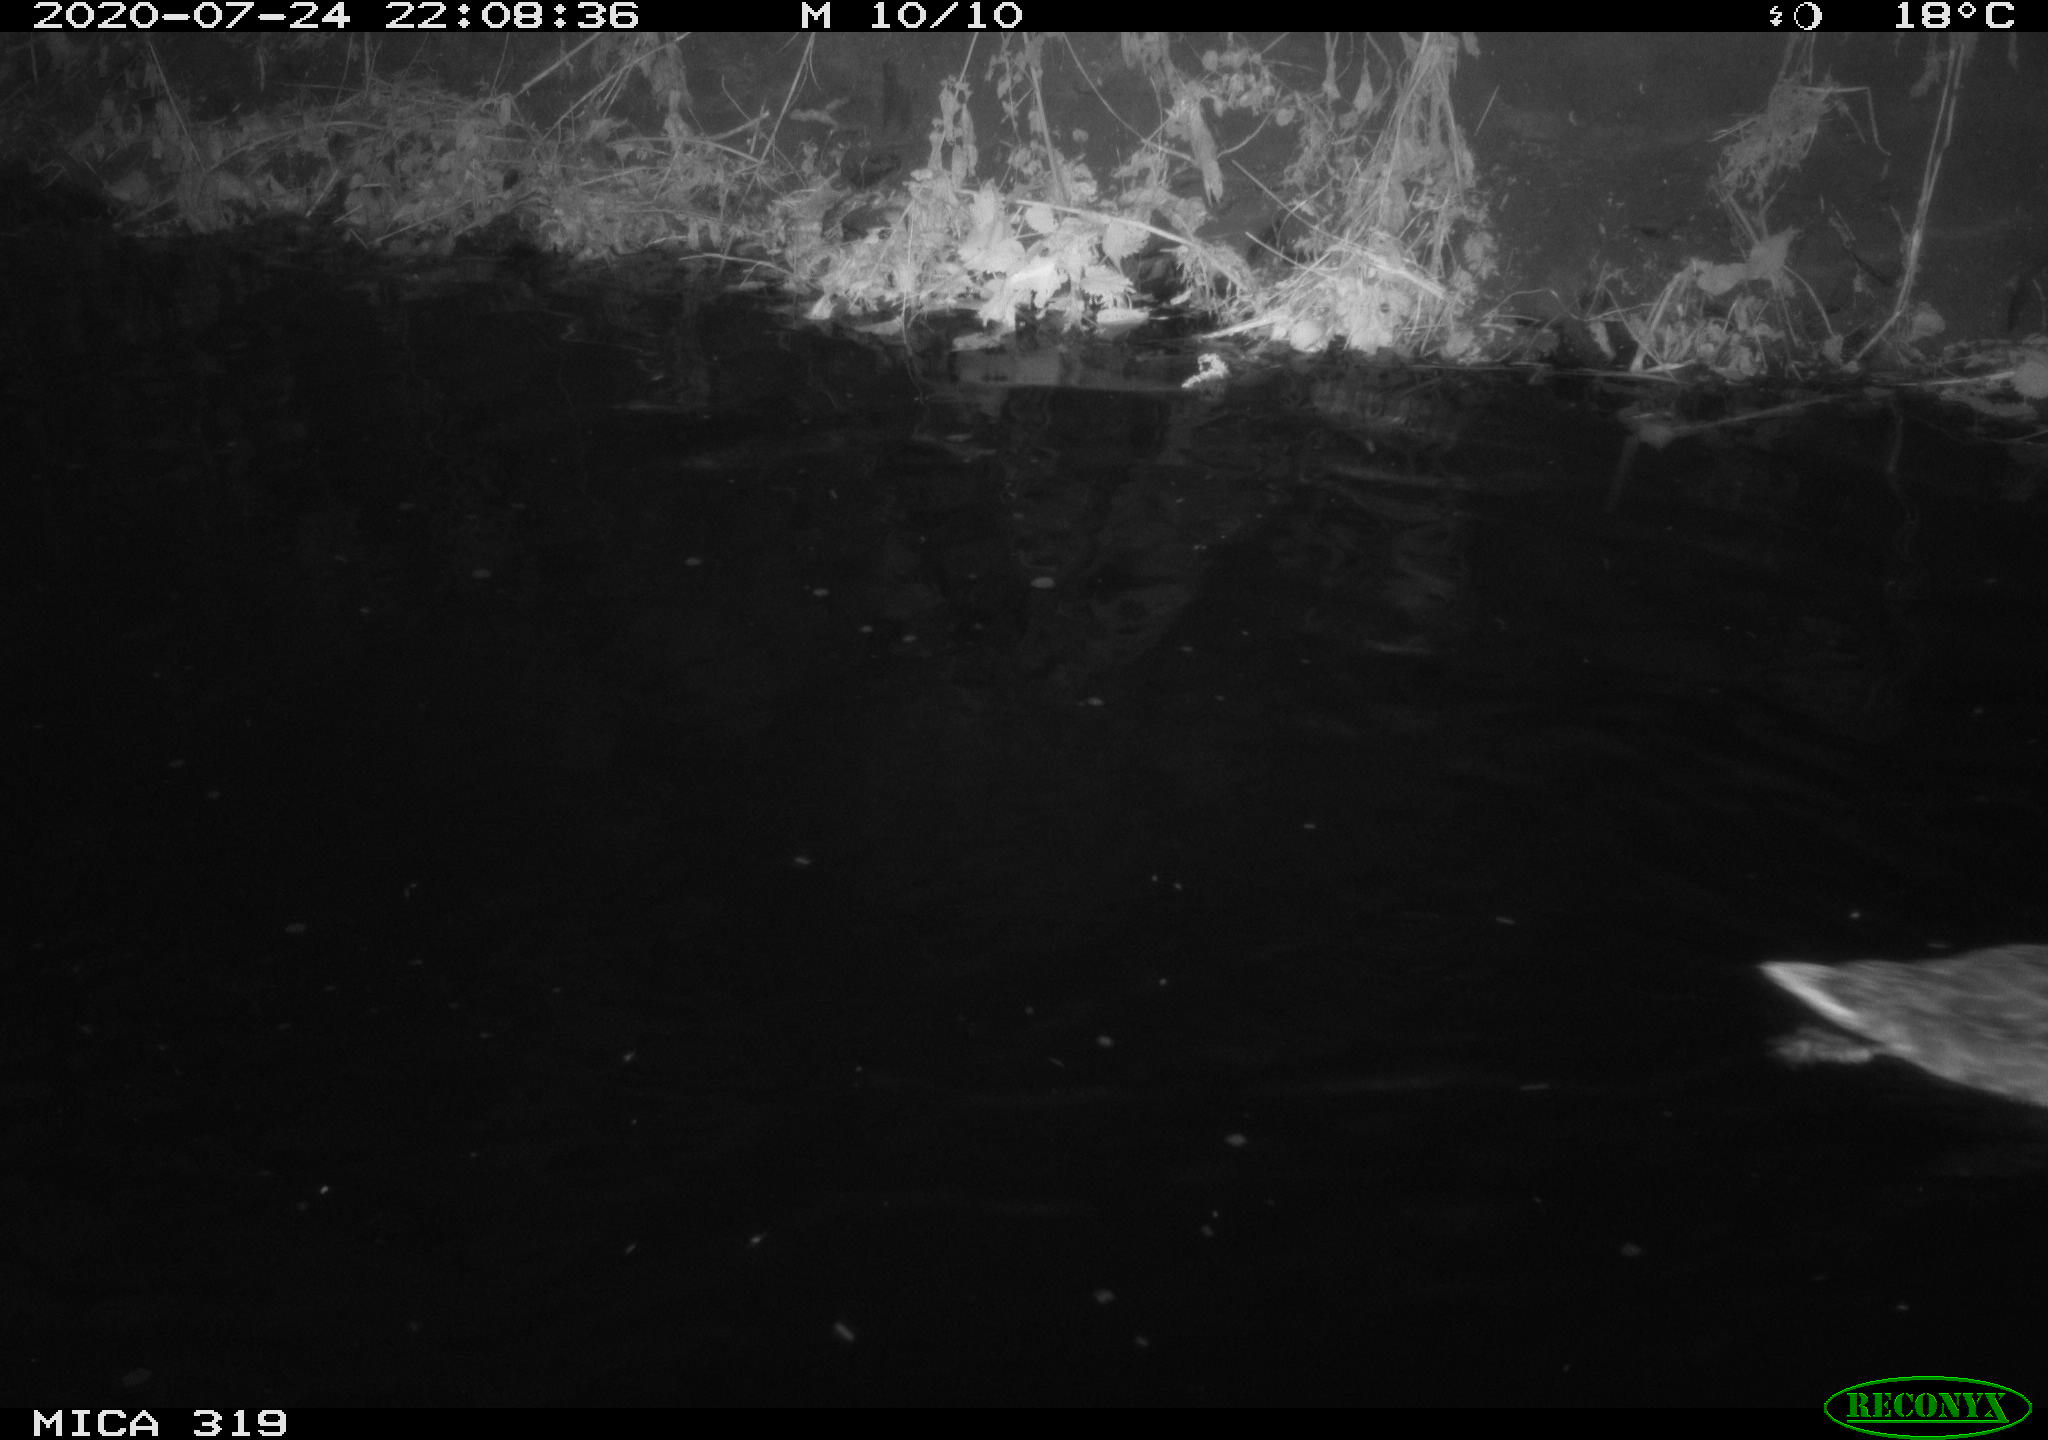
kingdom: Animalia
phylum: Chordata
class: Aves
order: Anseriformes
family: Anatidae
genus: Anas
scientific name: Anas platyrhynchos
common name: Mallard
